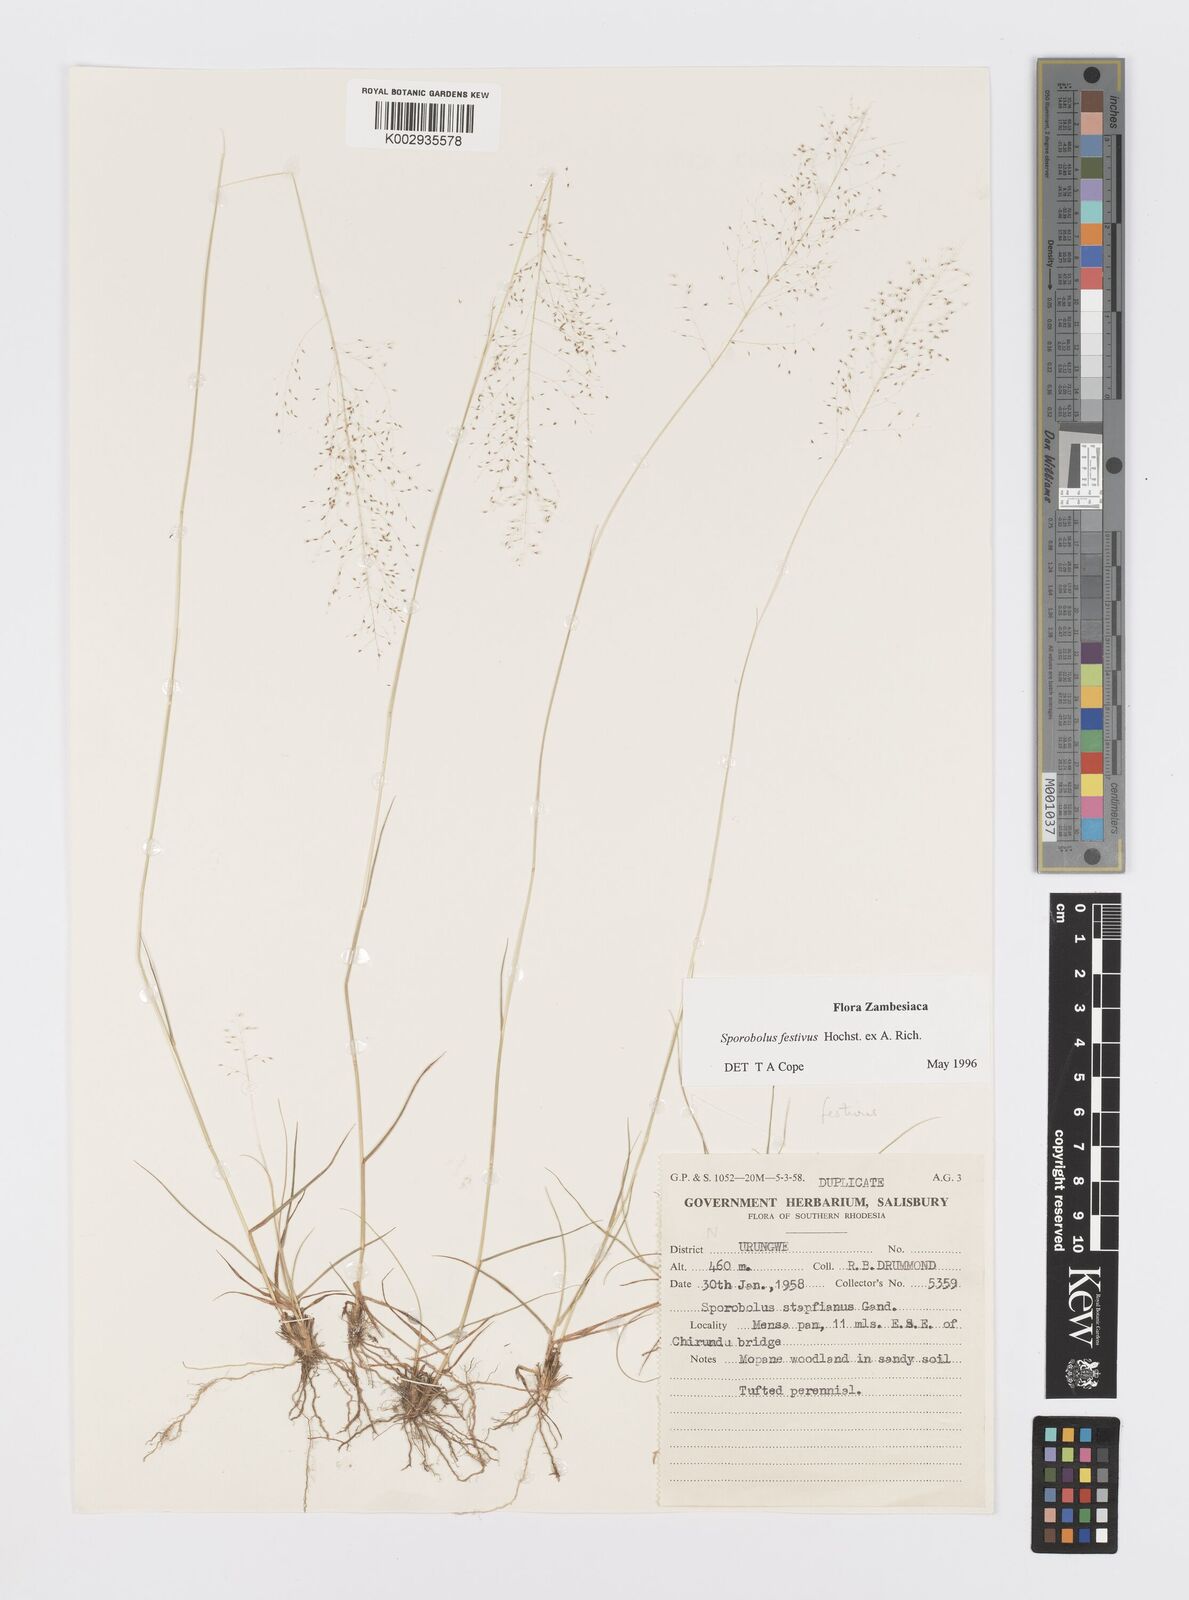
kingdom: Plantae
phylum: Tracheophyta
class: Liliopsida
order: Poales
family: Poaceae
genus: Sporobolus
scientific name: Sporobolus festivus
